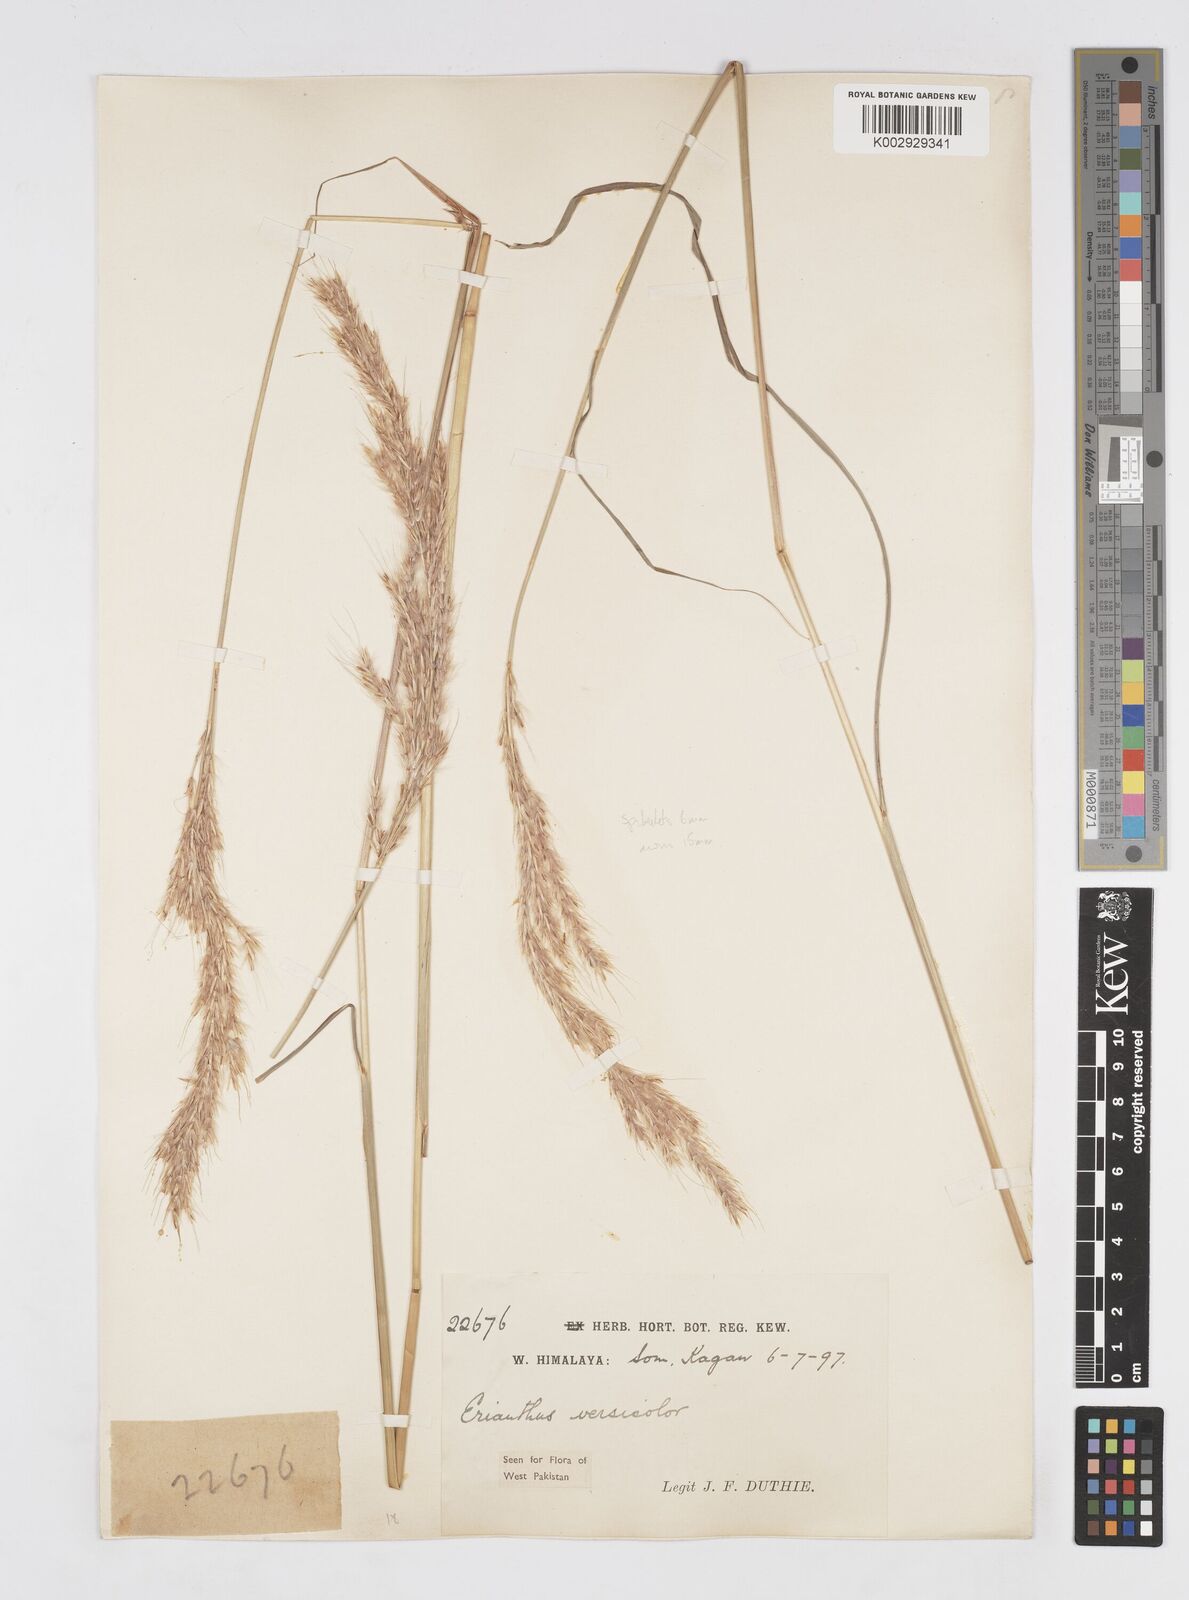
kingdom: Plantae
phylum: Tracheophyta
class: Liliopsida
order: Poales
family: Poaceae
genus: Saccharum
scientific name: Saccharum filifolium
